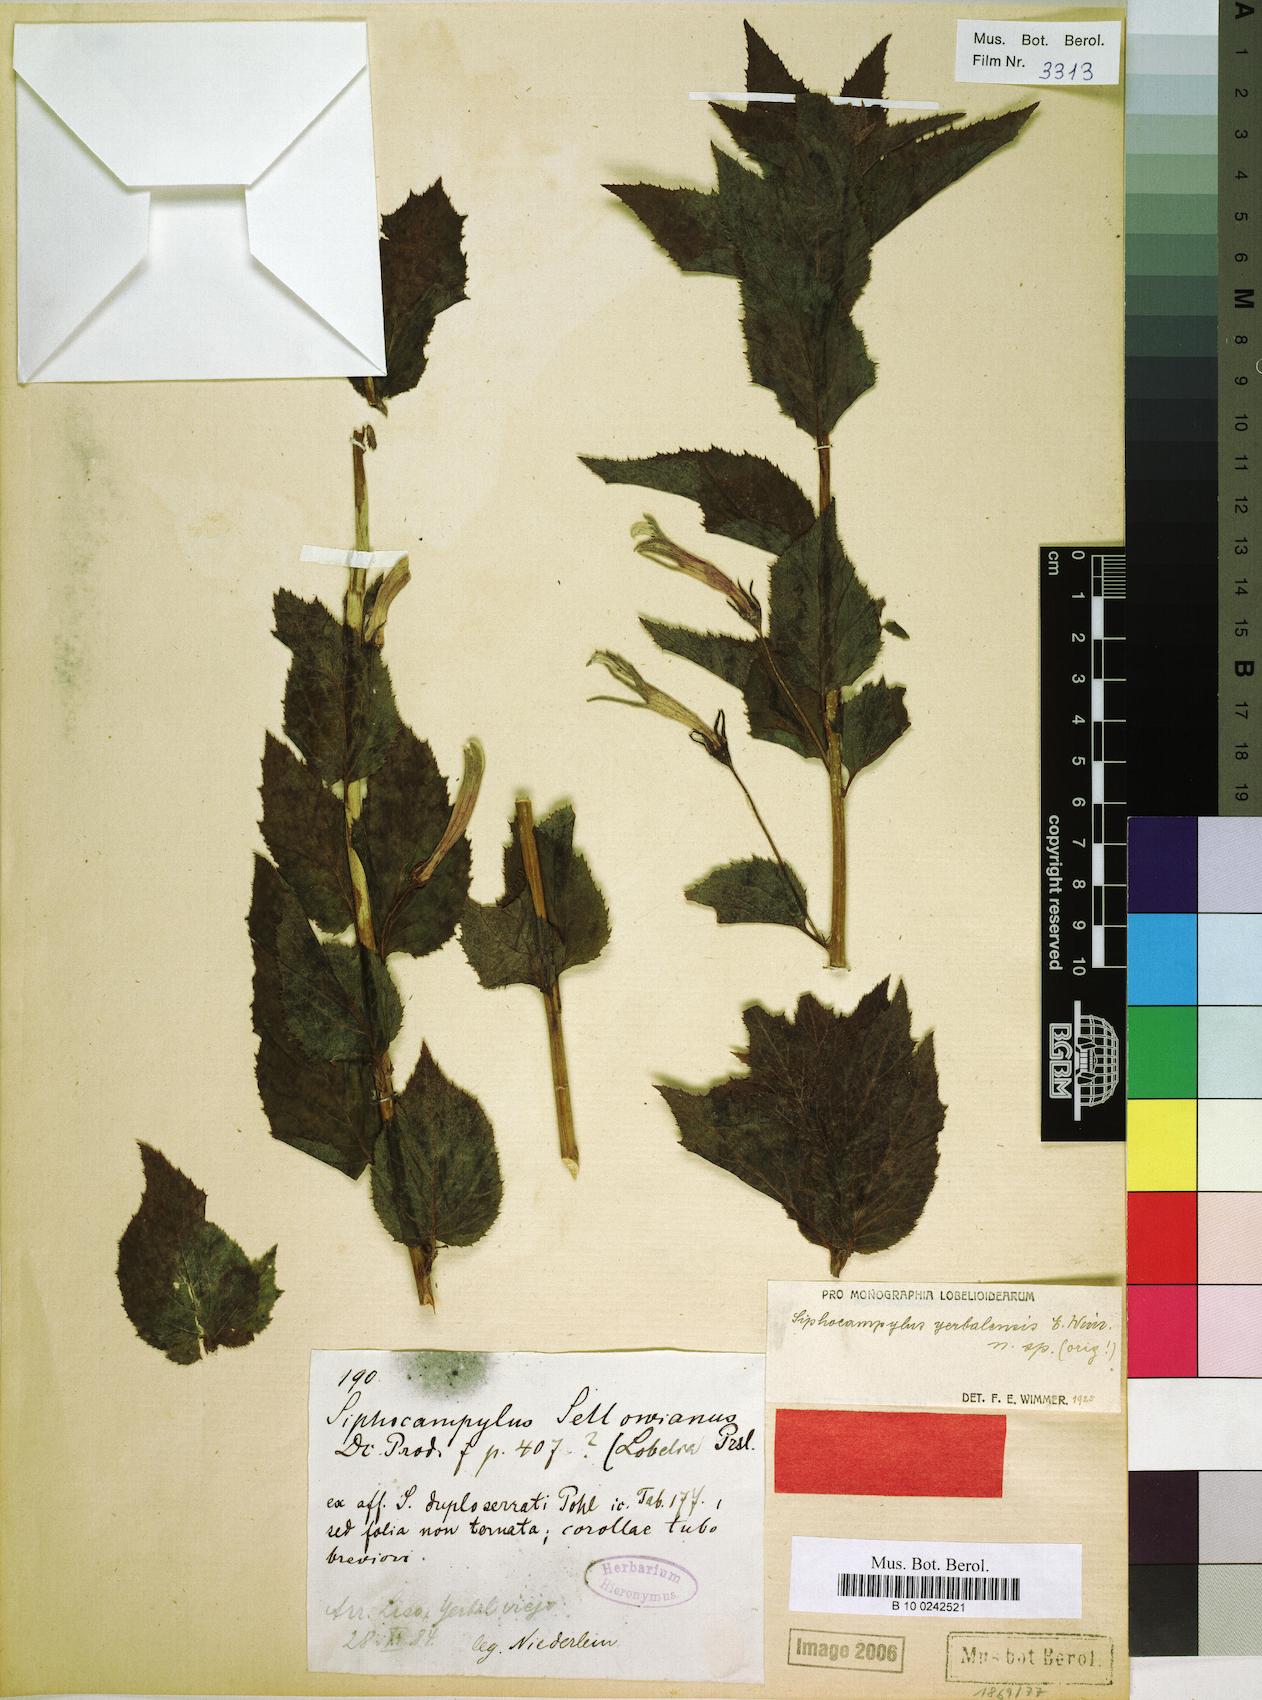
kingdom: Plantae
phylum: Tracheophyta
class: Magnoliopsida
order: Asterales
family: Campanulaceae
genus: Siphocampylus
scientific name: Siphocampylus yerbalensis
